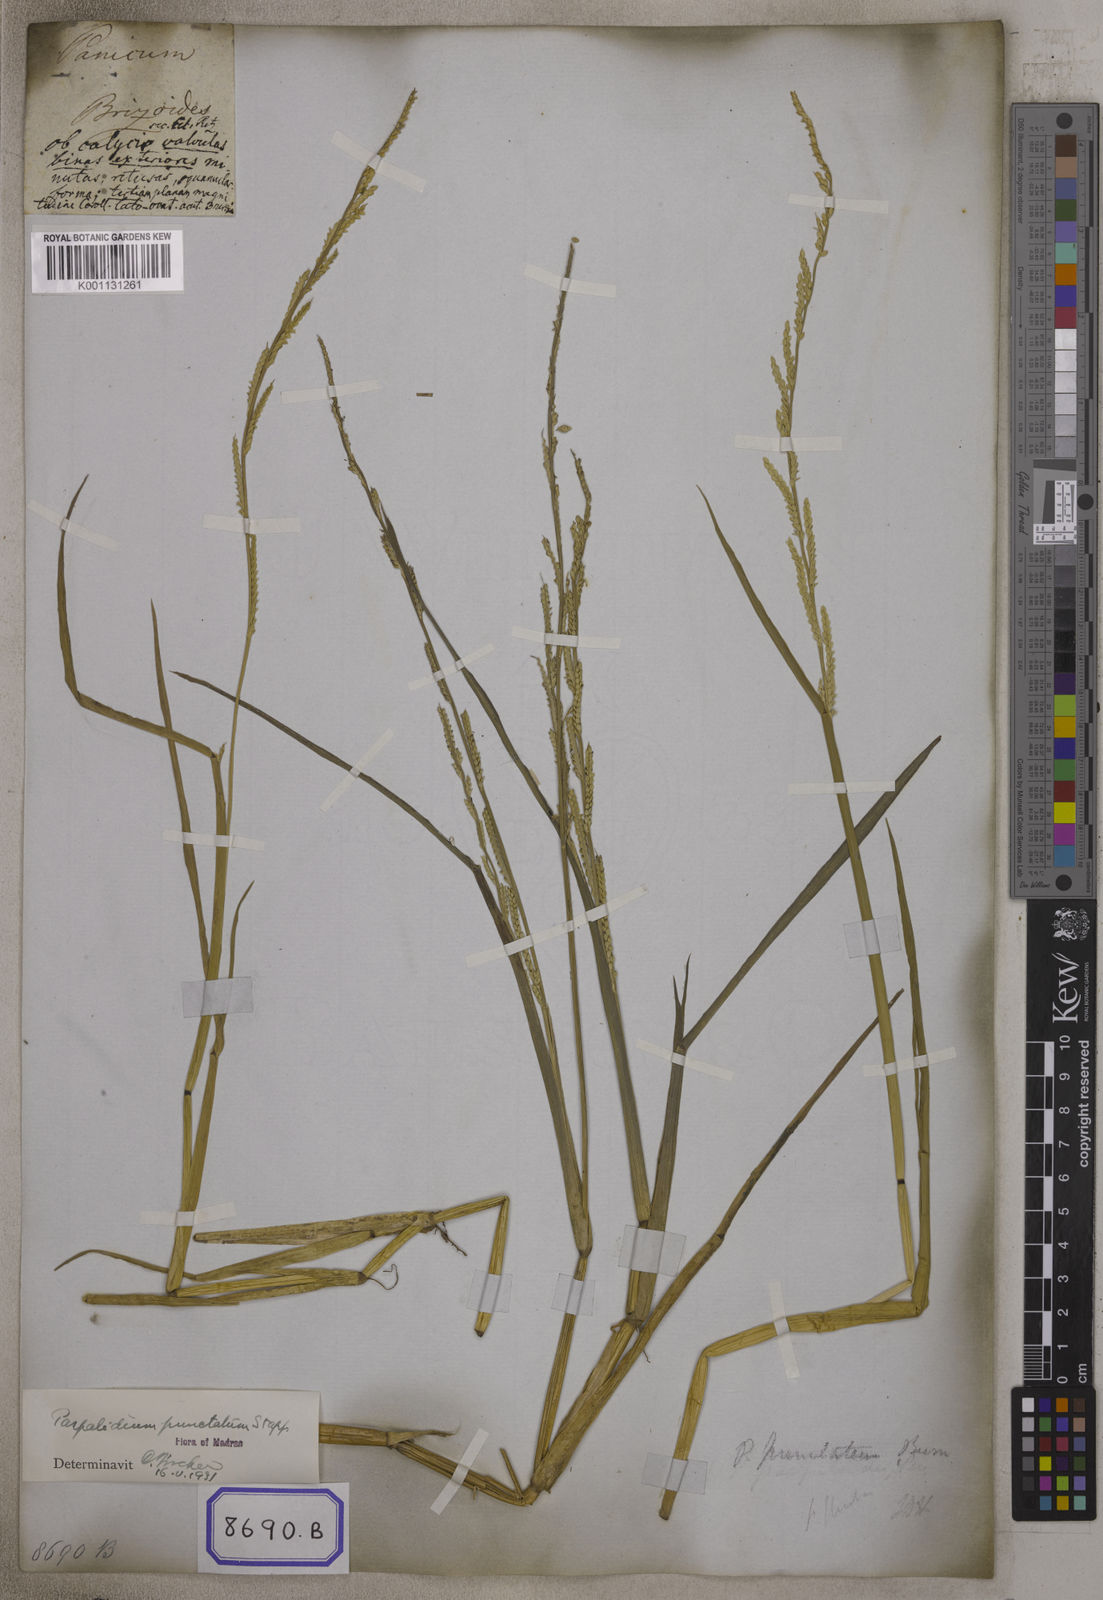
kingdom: Plantae
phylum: Tracheophyta
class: Liliopsida
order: Poales
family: Poaceae
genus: Echinochloa
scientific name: Echinochloa colonum
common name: Jungle rice
